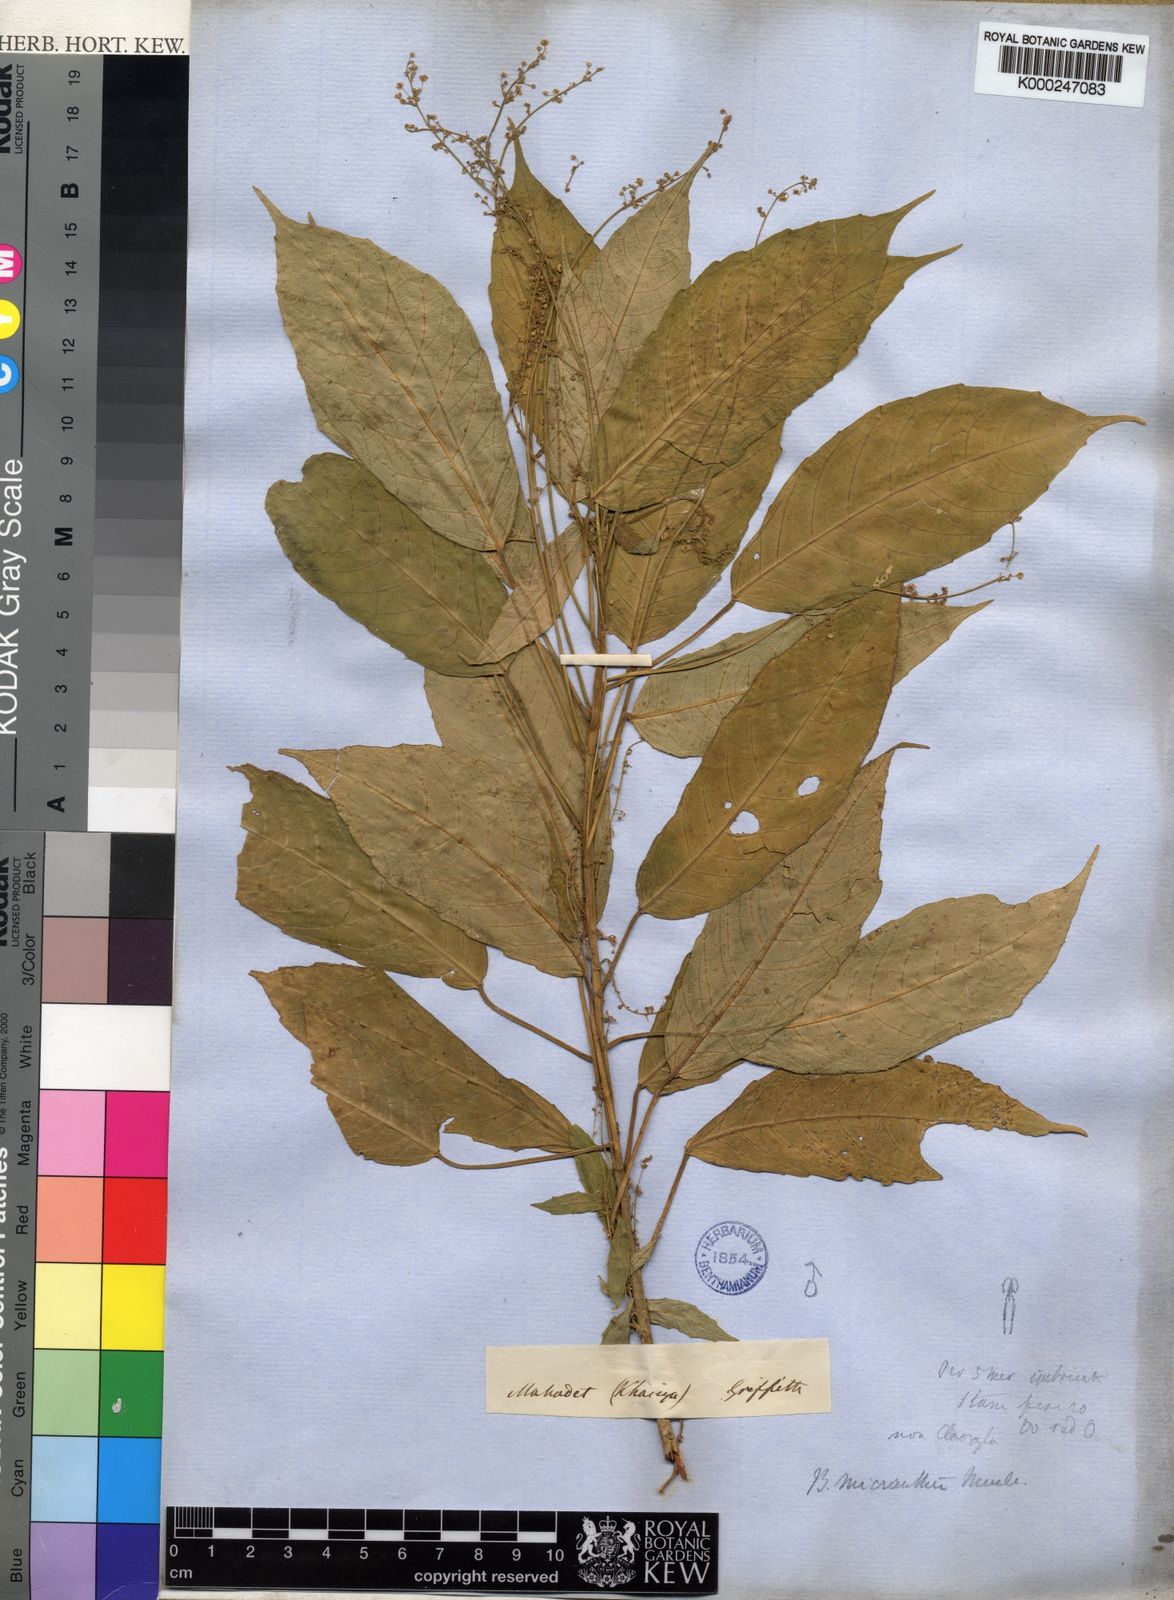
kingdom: Plantae
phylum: Tracheophyta
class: Magnoliopsida
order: Malpighiales
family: Euphorbiaceae
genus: Baliospermum
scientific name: Baliospermum
